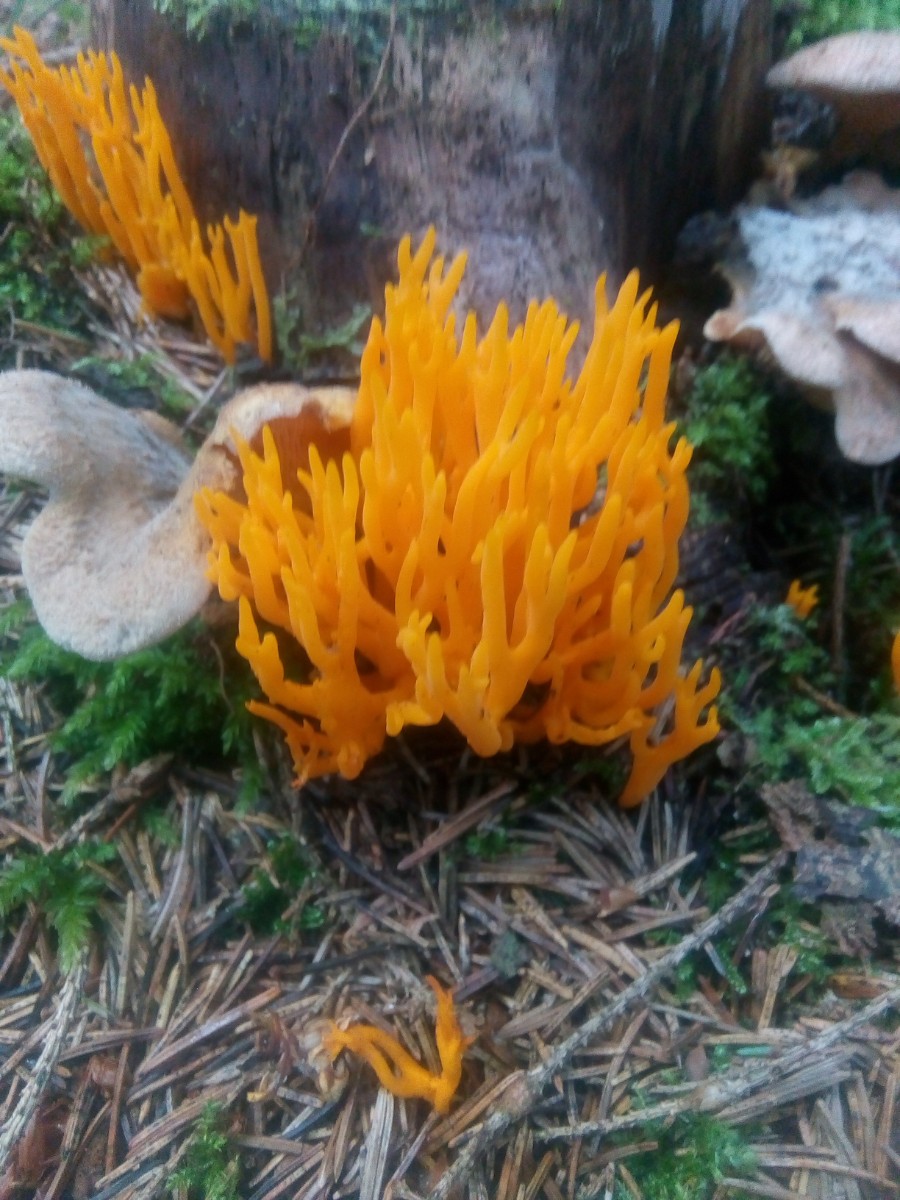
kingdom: Fungi
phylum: Basidiomycota
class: Dacrymycetes
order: Dacrymycetales
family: Dacrymycetaceae
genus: Calocera
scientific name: Calocera viscosa
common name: almindelig guldgaffel
